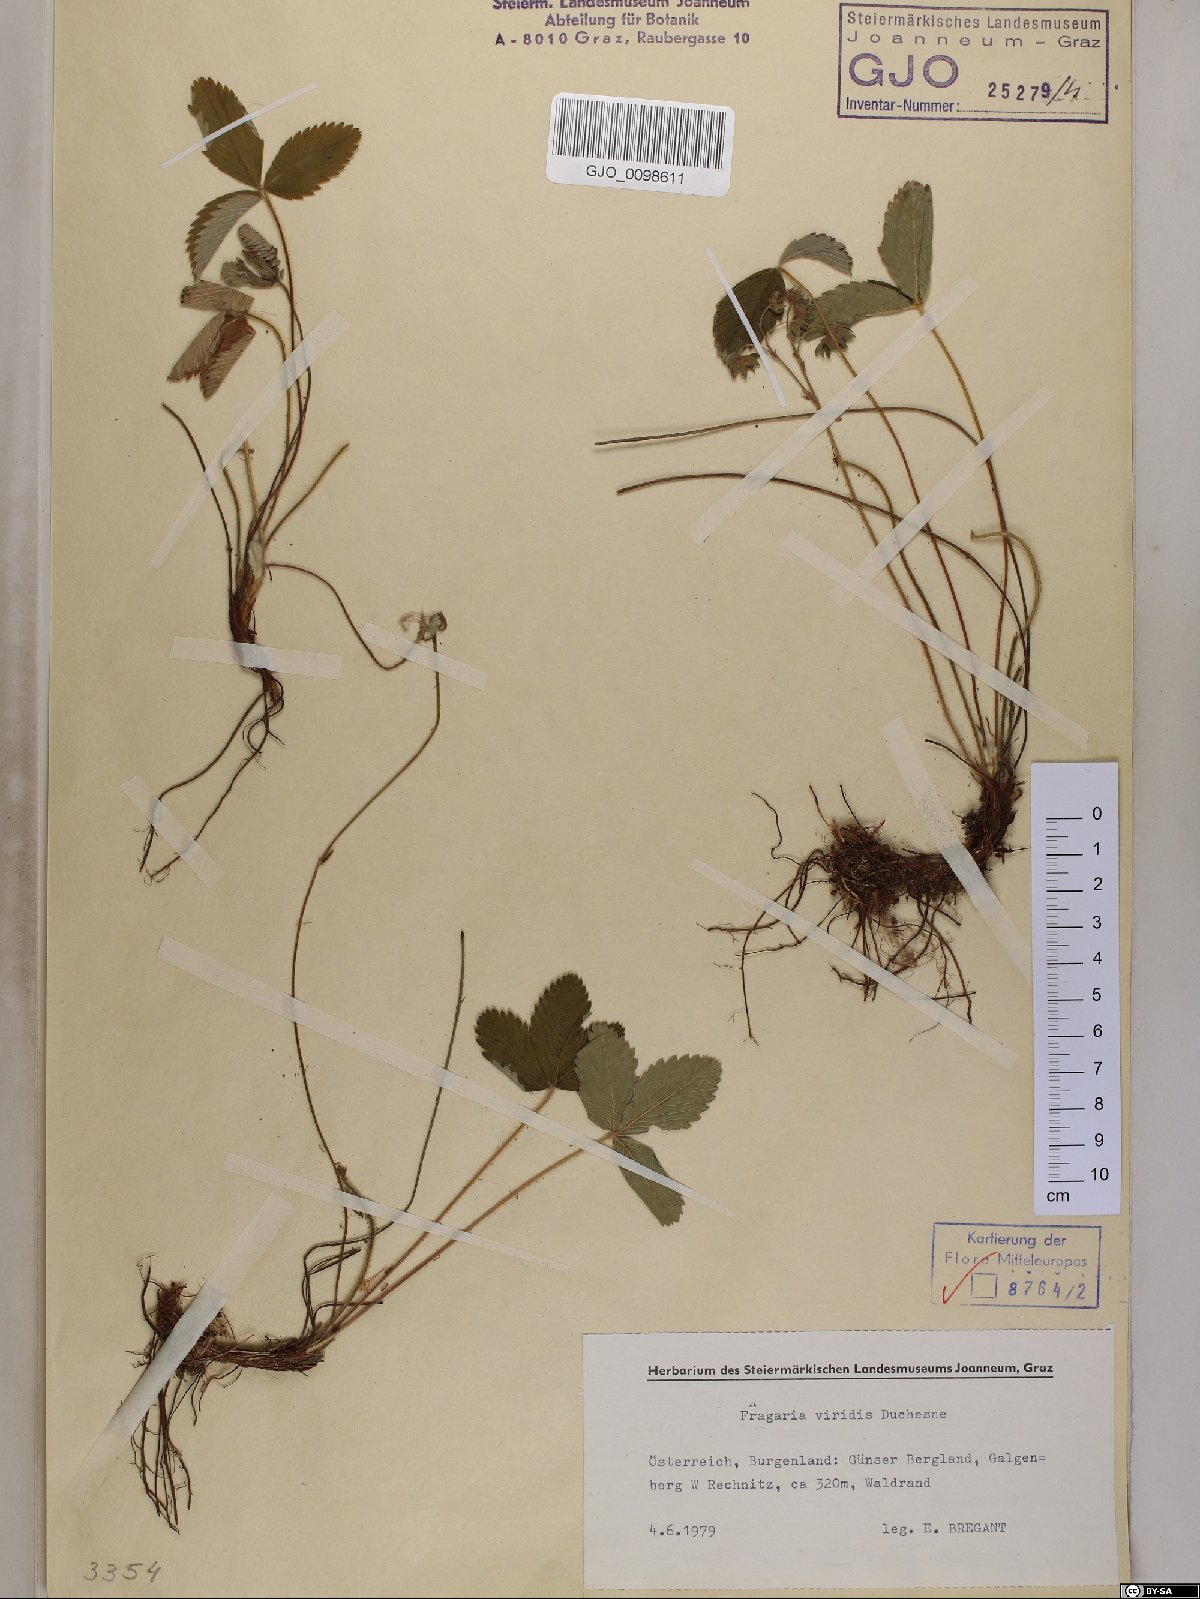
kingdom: Plantae
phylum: Tracheophyta
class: Magnoliopsida
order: Rosales
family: Rosaceae
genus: Fragaria
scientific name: Fragaria viridis
